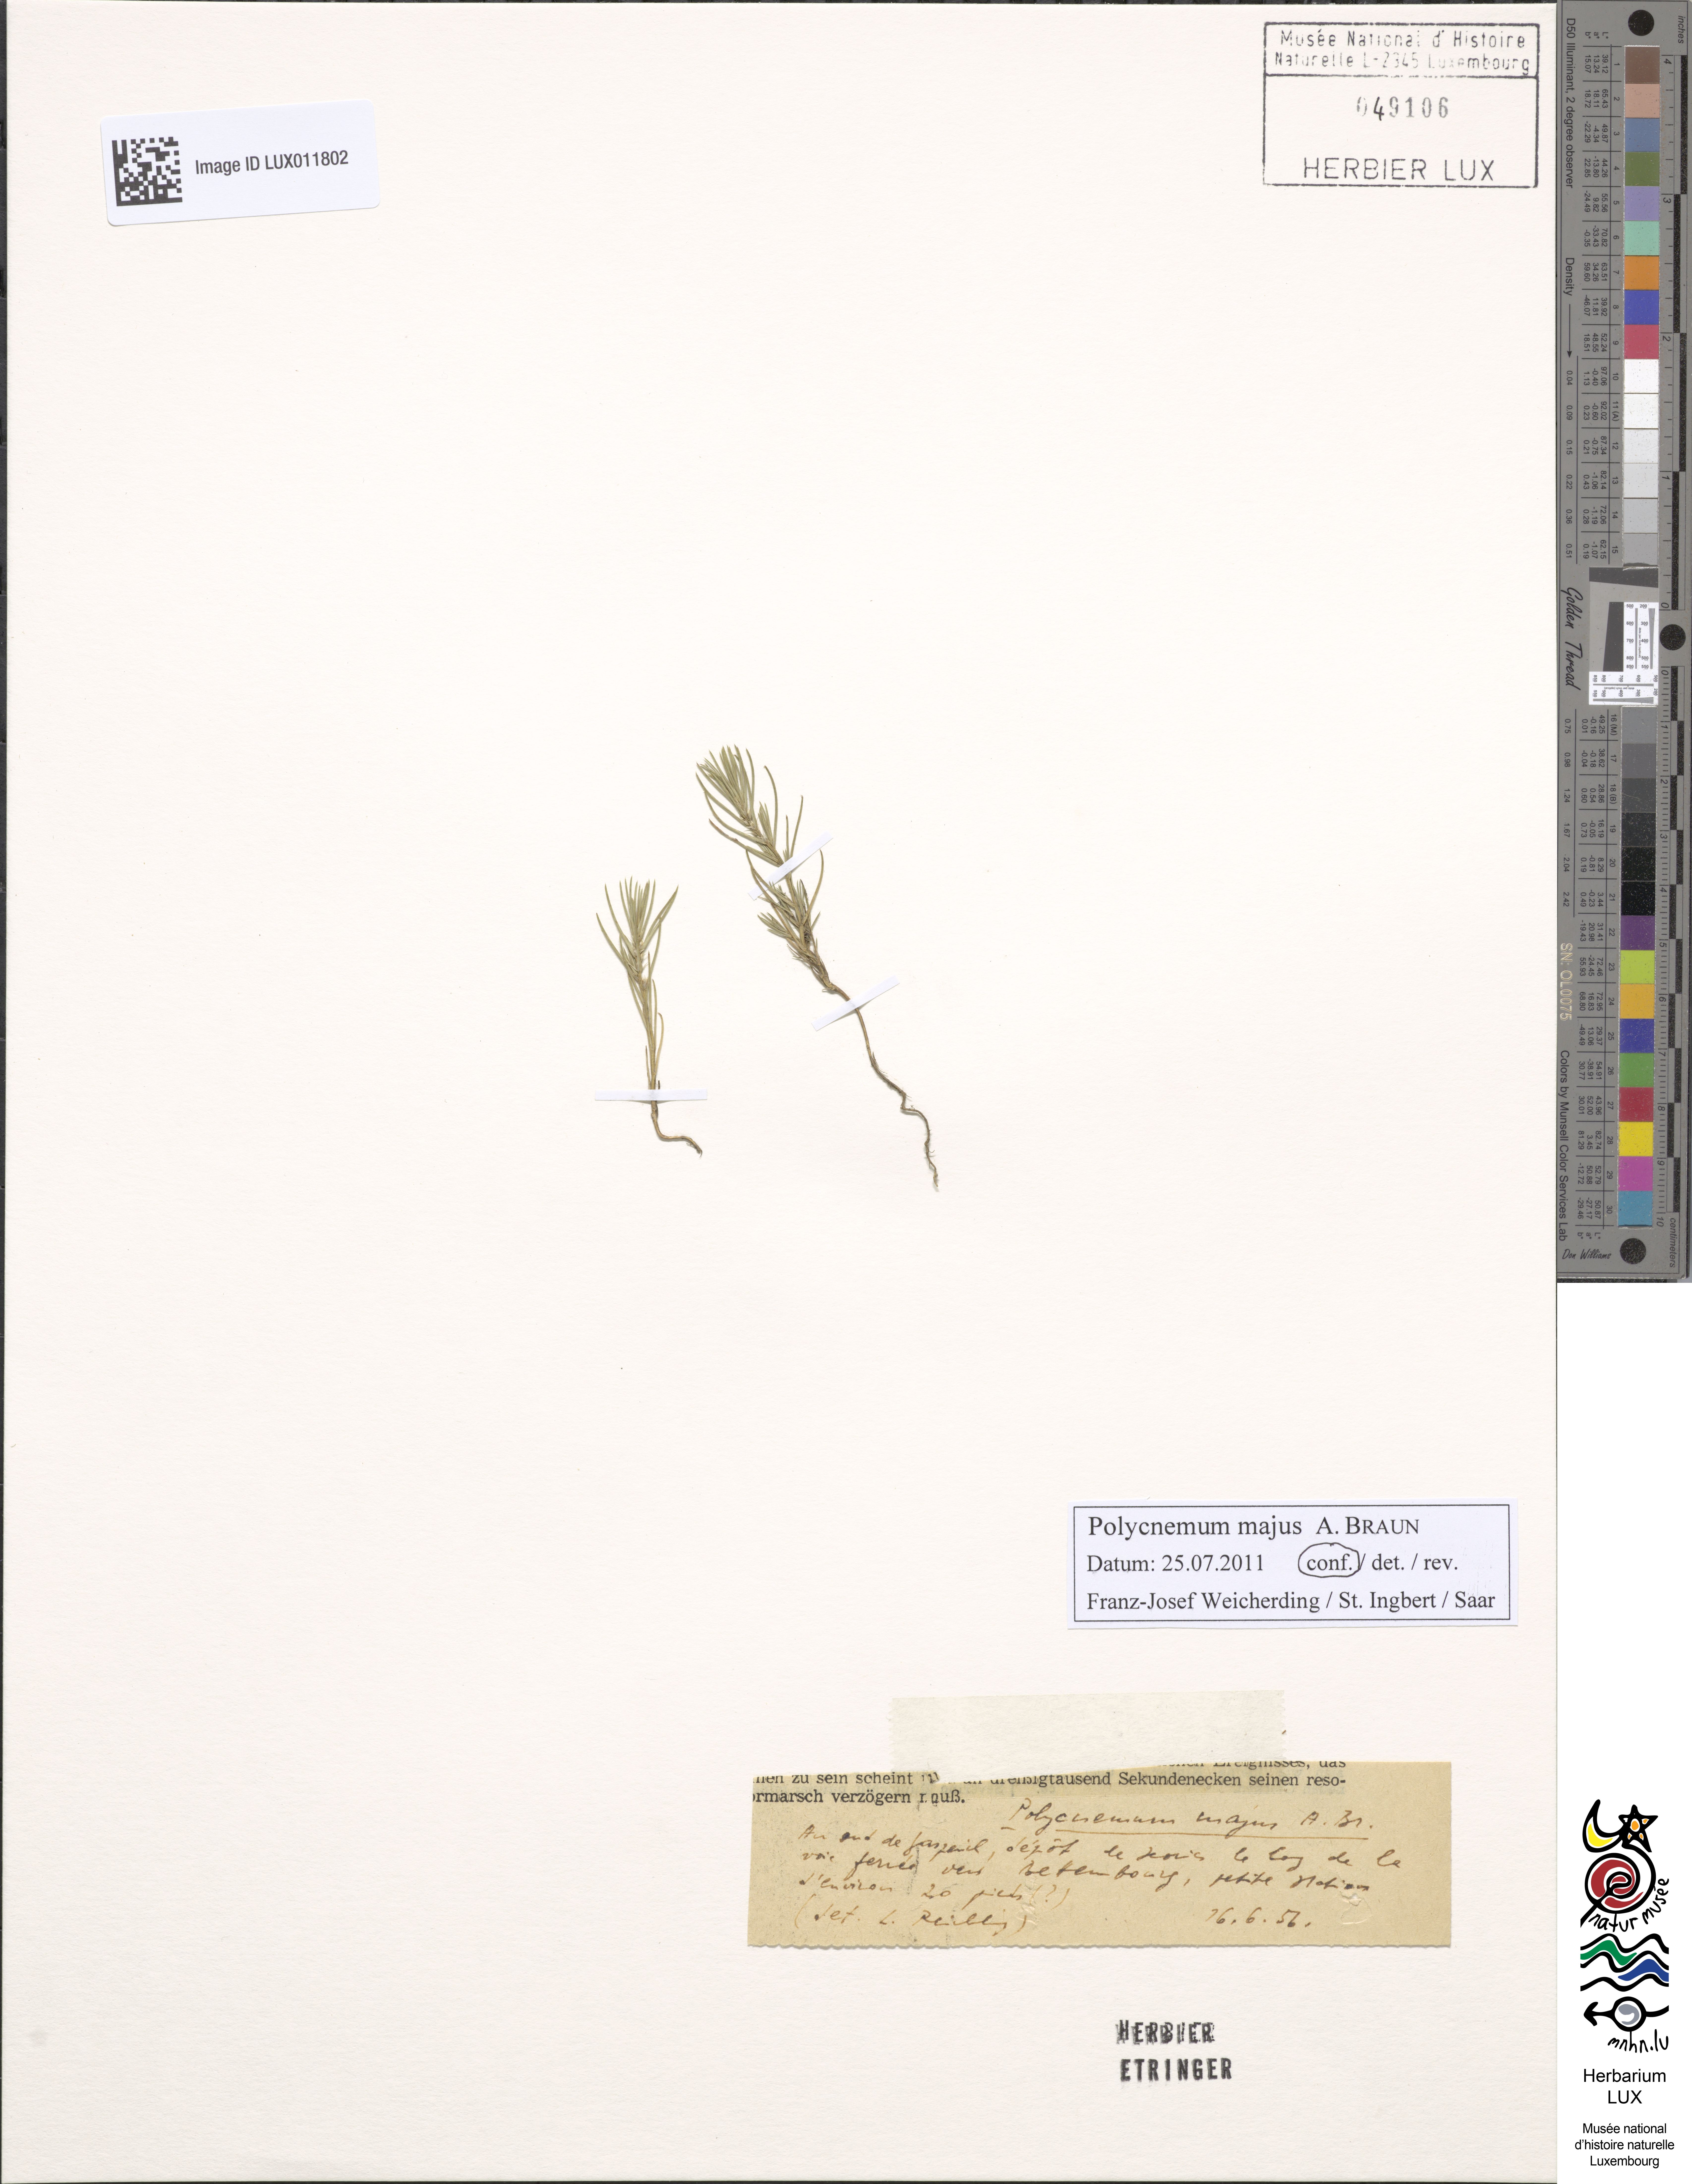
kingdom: Plantae
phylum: Tracheophyta
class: Magnoliopsida
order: Caryophyllales
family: Amaranthaceae
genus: Polycnemum
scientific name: Polycnemum majus
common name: Giant needleleaf
